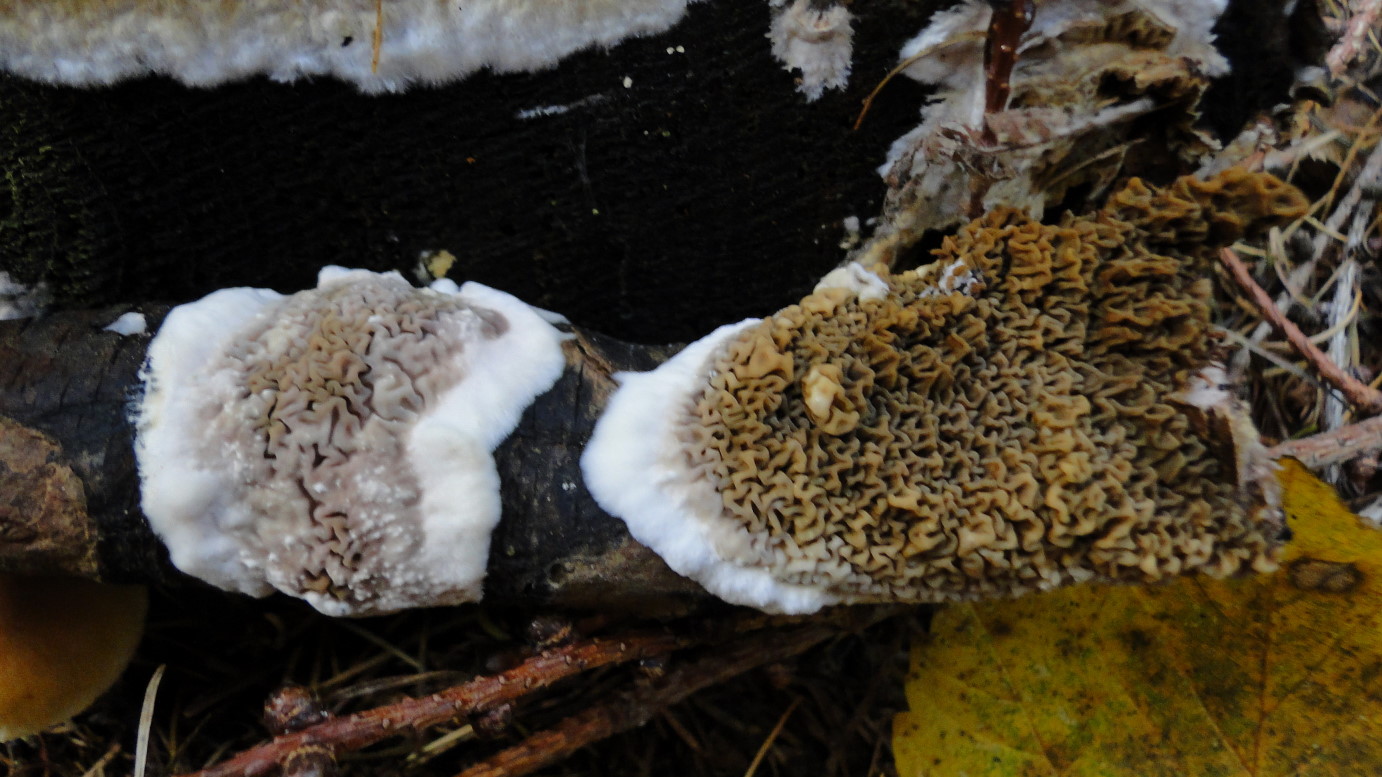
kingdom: Fungi
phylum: Basidiomycota
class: Agaricomycetes
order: Boletales
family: Serpulaceae
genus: Serpula
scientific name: Serpula himantioides
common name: tyndkødet hussvamp
